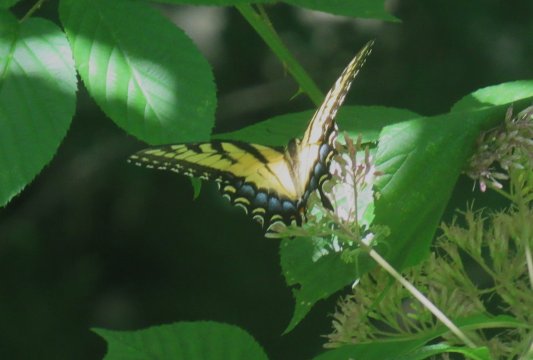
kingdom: Animalia
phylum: Arthropoda
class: Insecta
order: Lepidoptera
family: Papilionidae
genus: Pterourus
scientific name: Pterourus glaucus
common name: Eastern Tiger Swallowtail
